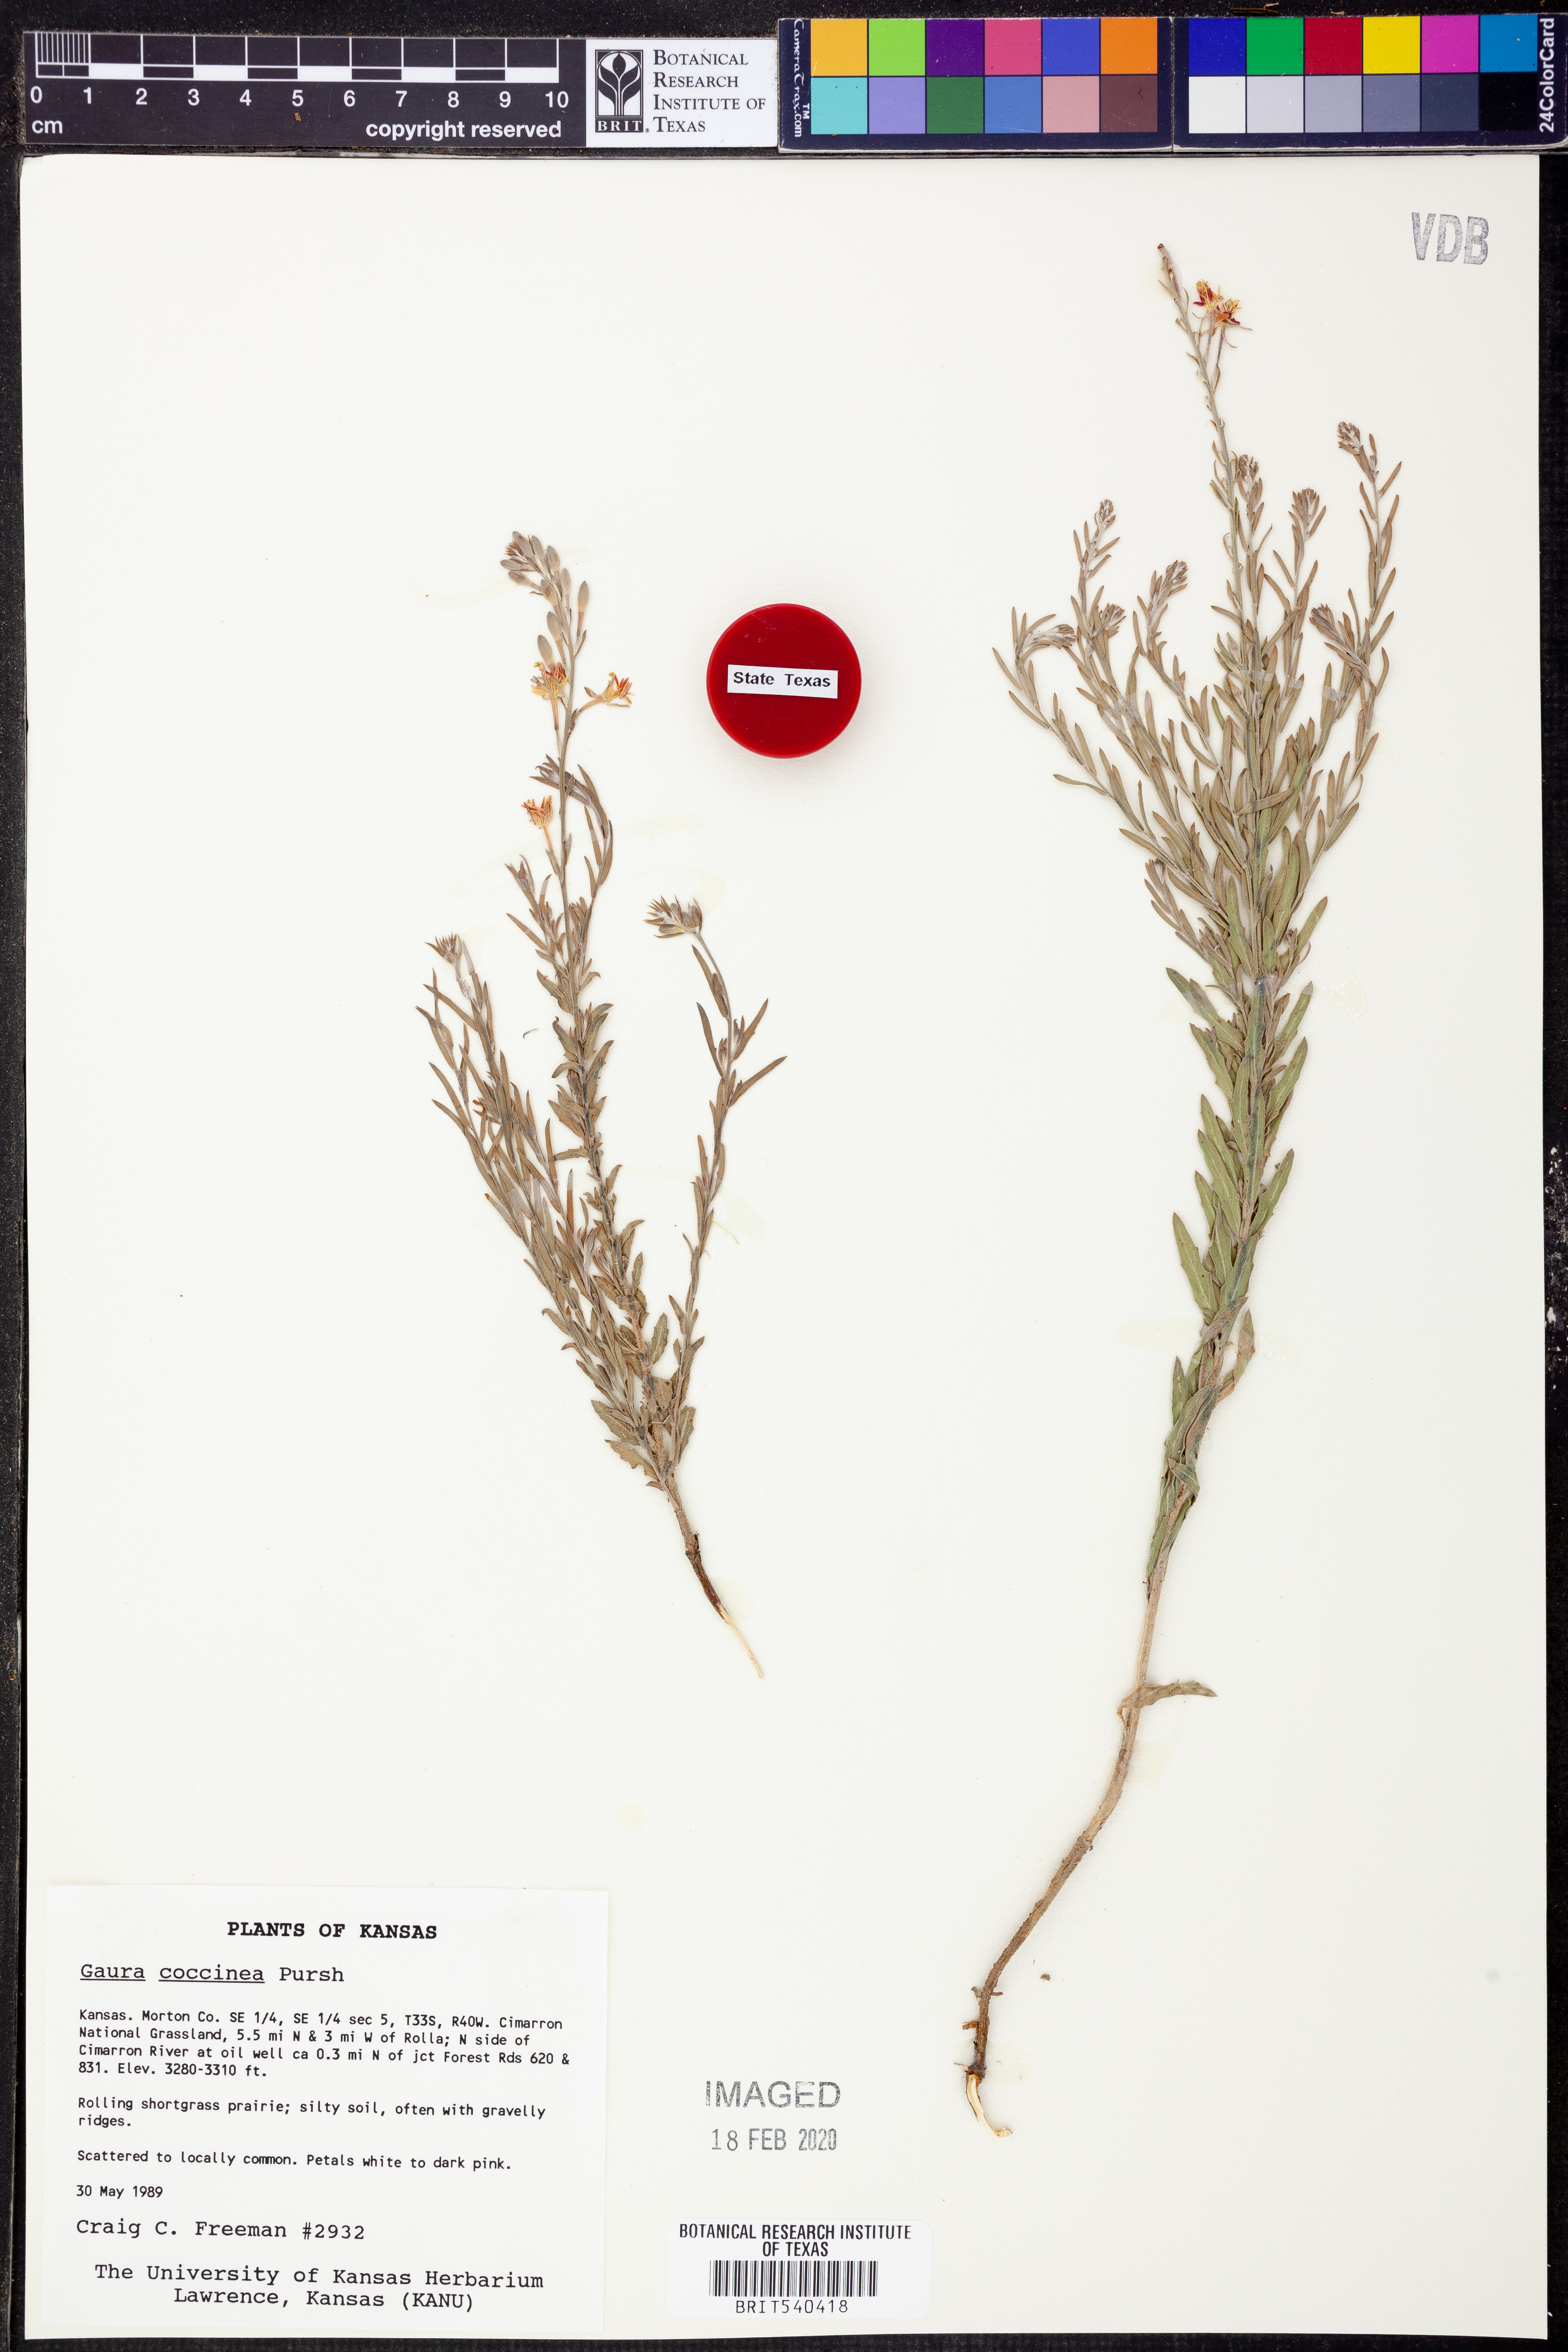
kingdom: Plantae
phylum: Tracheophyta
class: Magnoliopsida
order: Myrtales
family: Onagraceae
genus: Oenothera
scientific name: Oenothera suffrutescens
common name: Scarlet beeblossom
